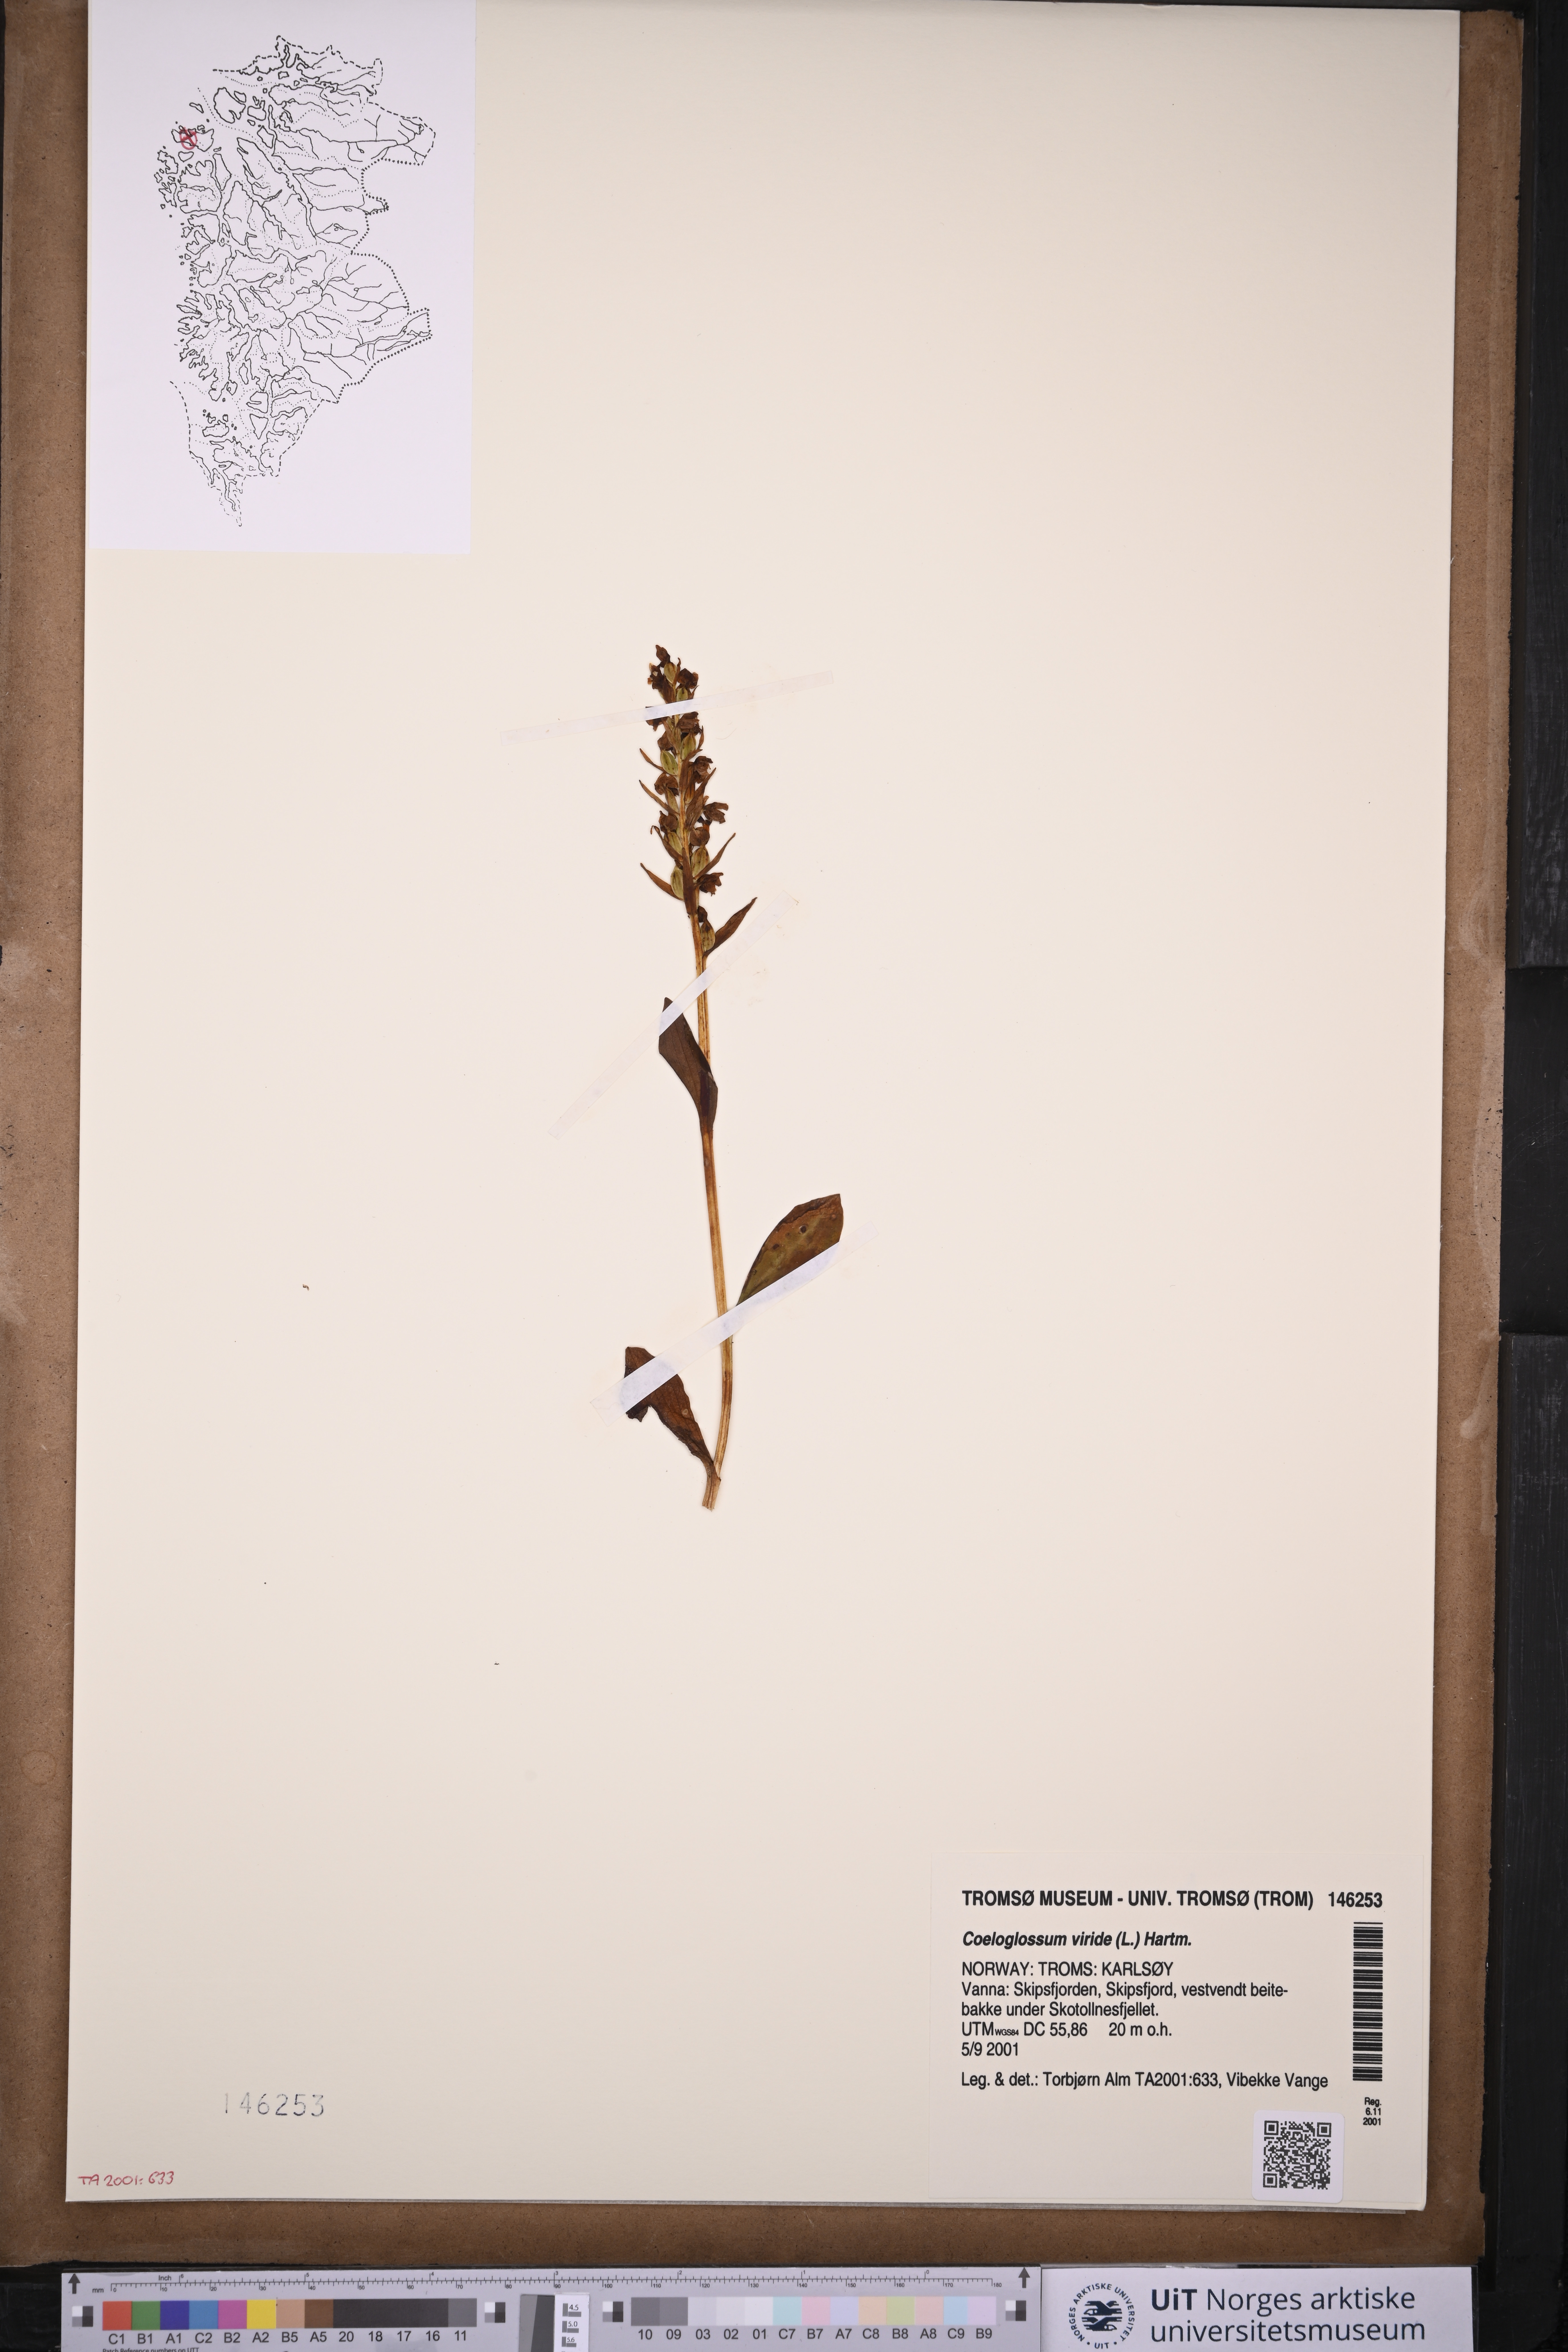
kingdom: Plantae
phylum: Tracheophyta
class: Liliopsida
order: Asparagales
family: Orchidaceae
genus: Dactylorhiza
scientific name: Dactylorhiza viridis
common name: Longbract frog orchid
